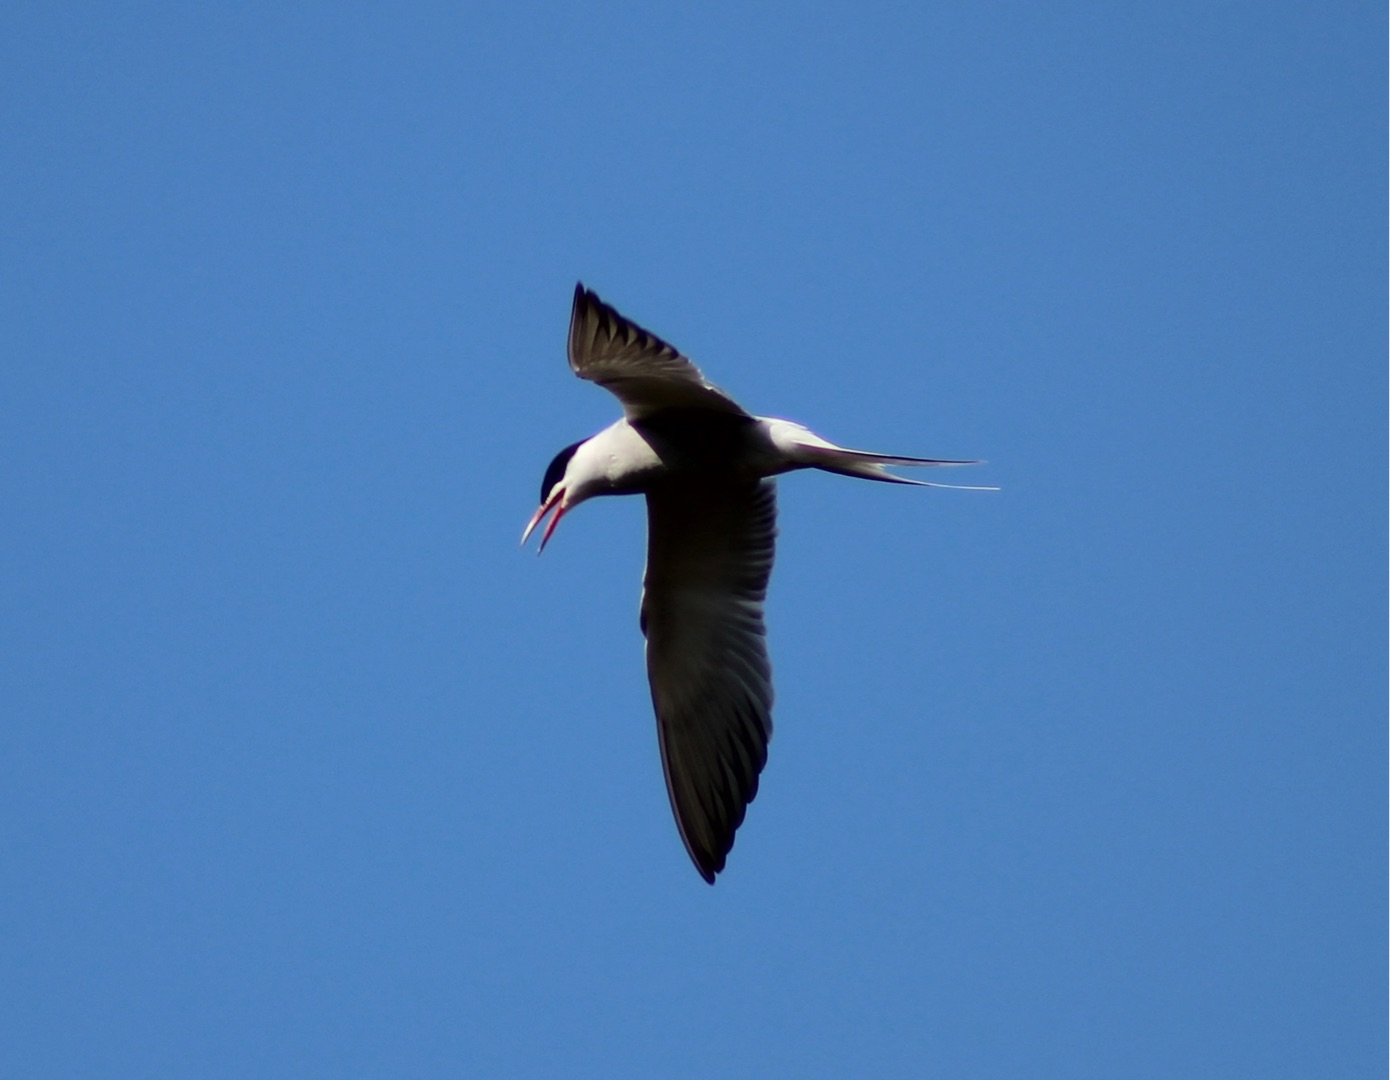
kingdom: Animalia
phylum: Chordata
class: Aves
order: Charadriiformes
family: Laridae
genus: Sterna
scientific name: Sterna hirundo
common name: Fjordterne
